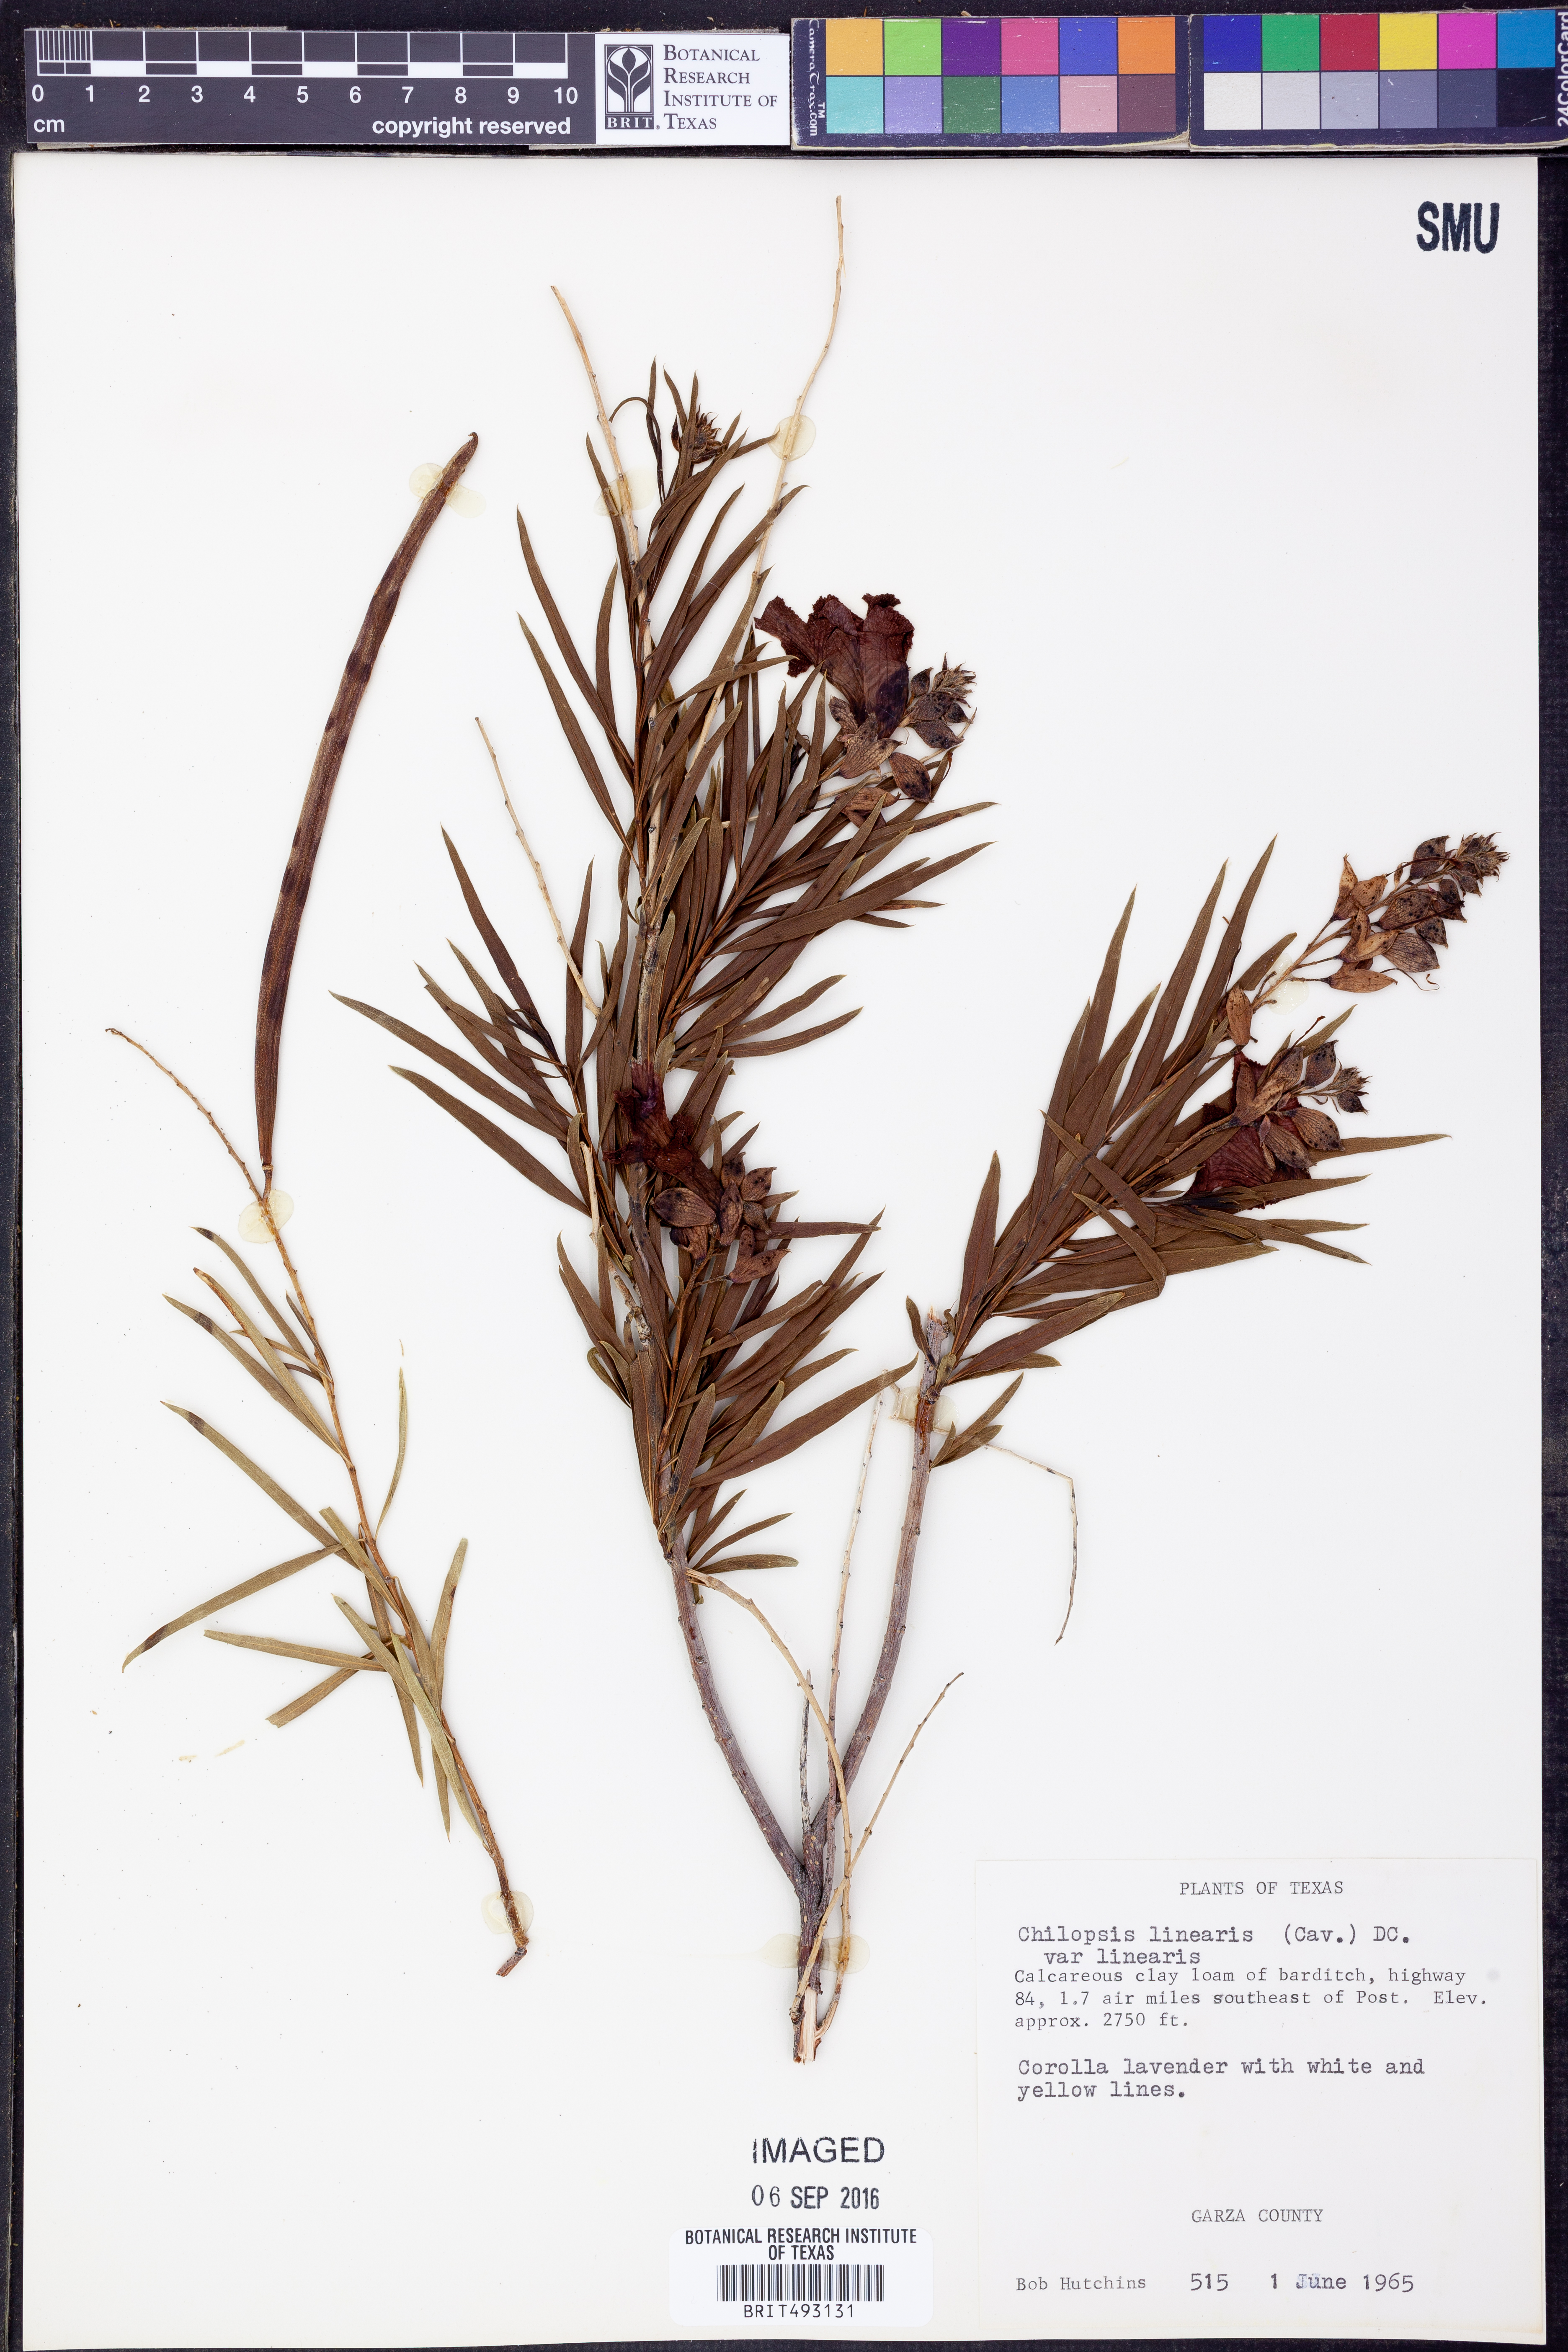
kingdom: Plantae
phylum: Tracheophyta
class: Magnoliopsida
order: Lamiales
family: Bignoniaceae
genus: Chilopsis
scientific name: Chilopsis linearis
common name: Desert-willow
